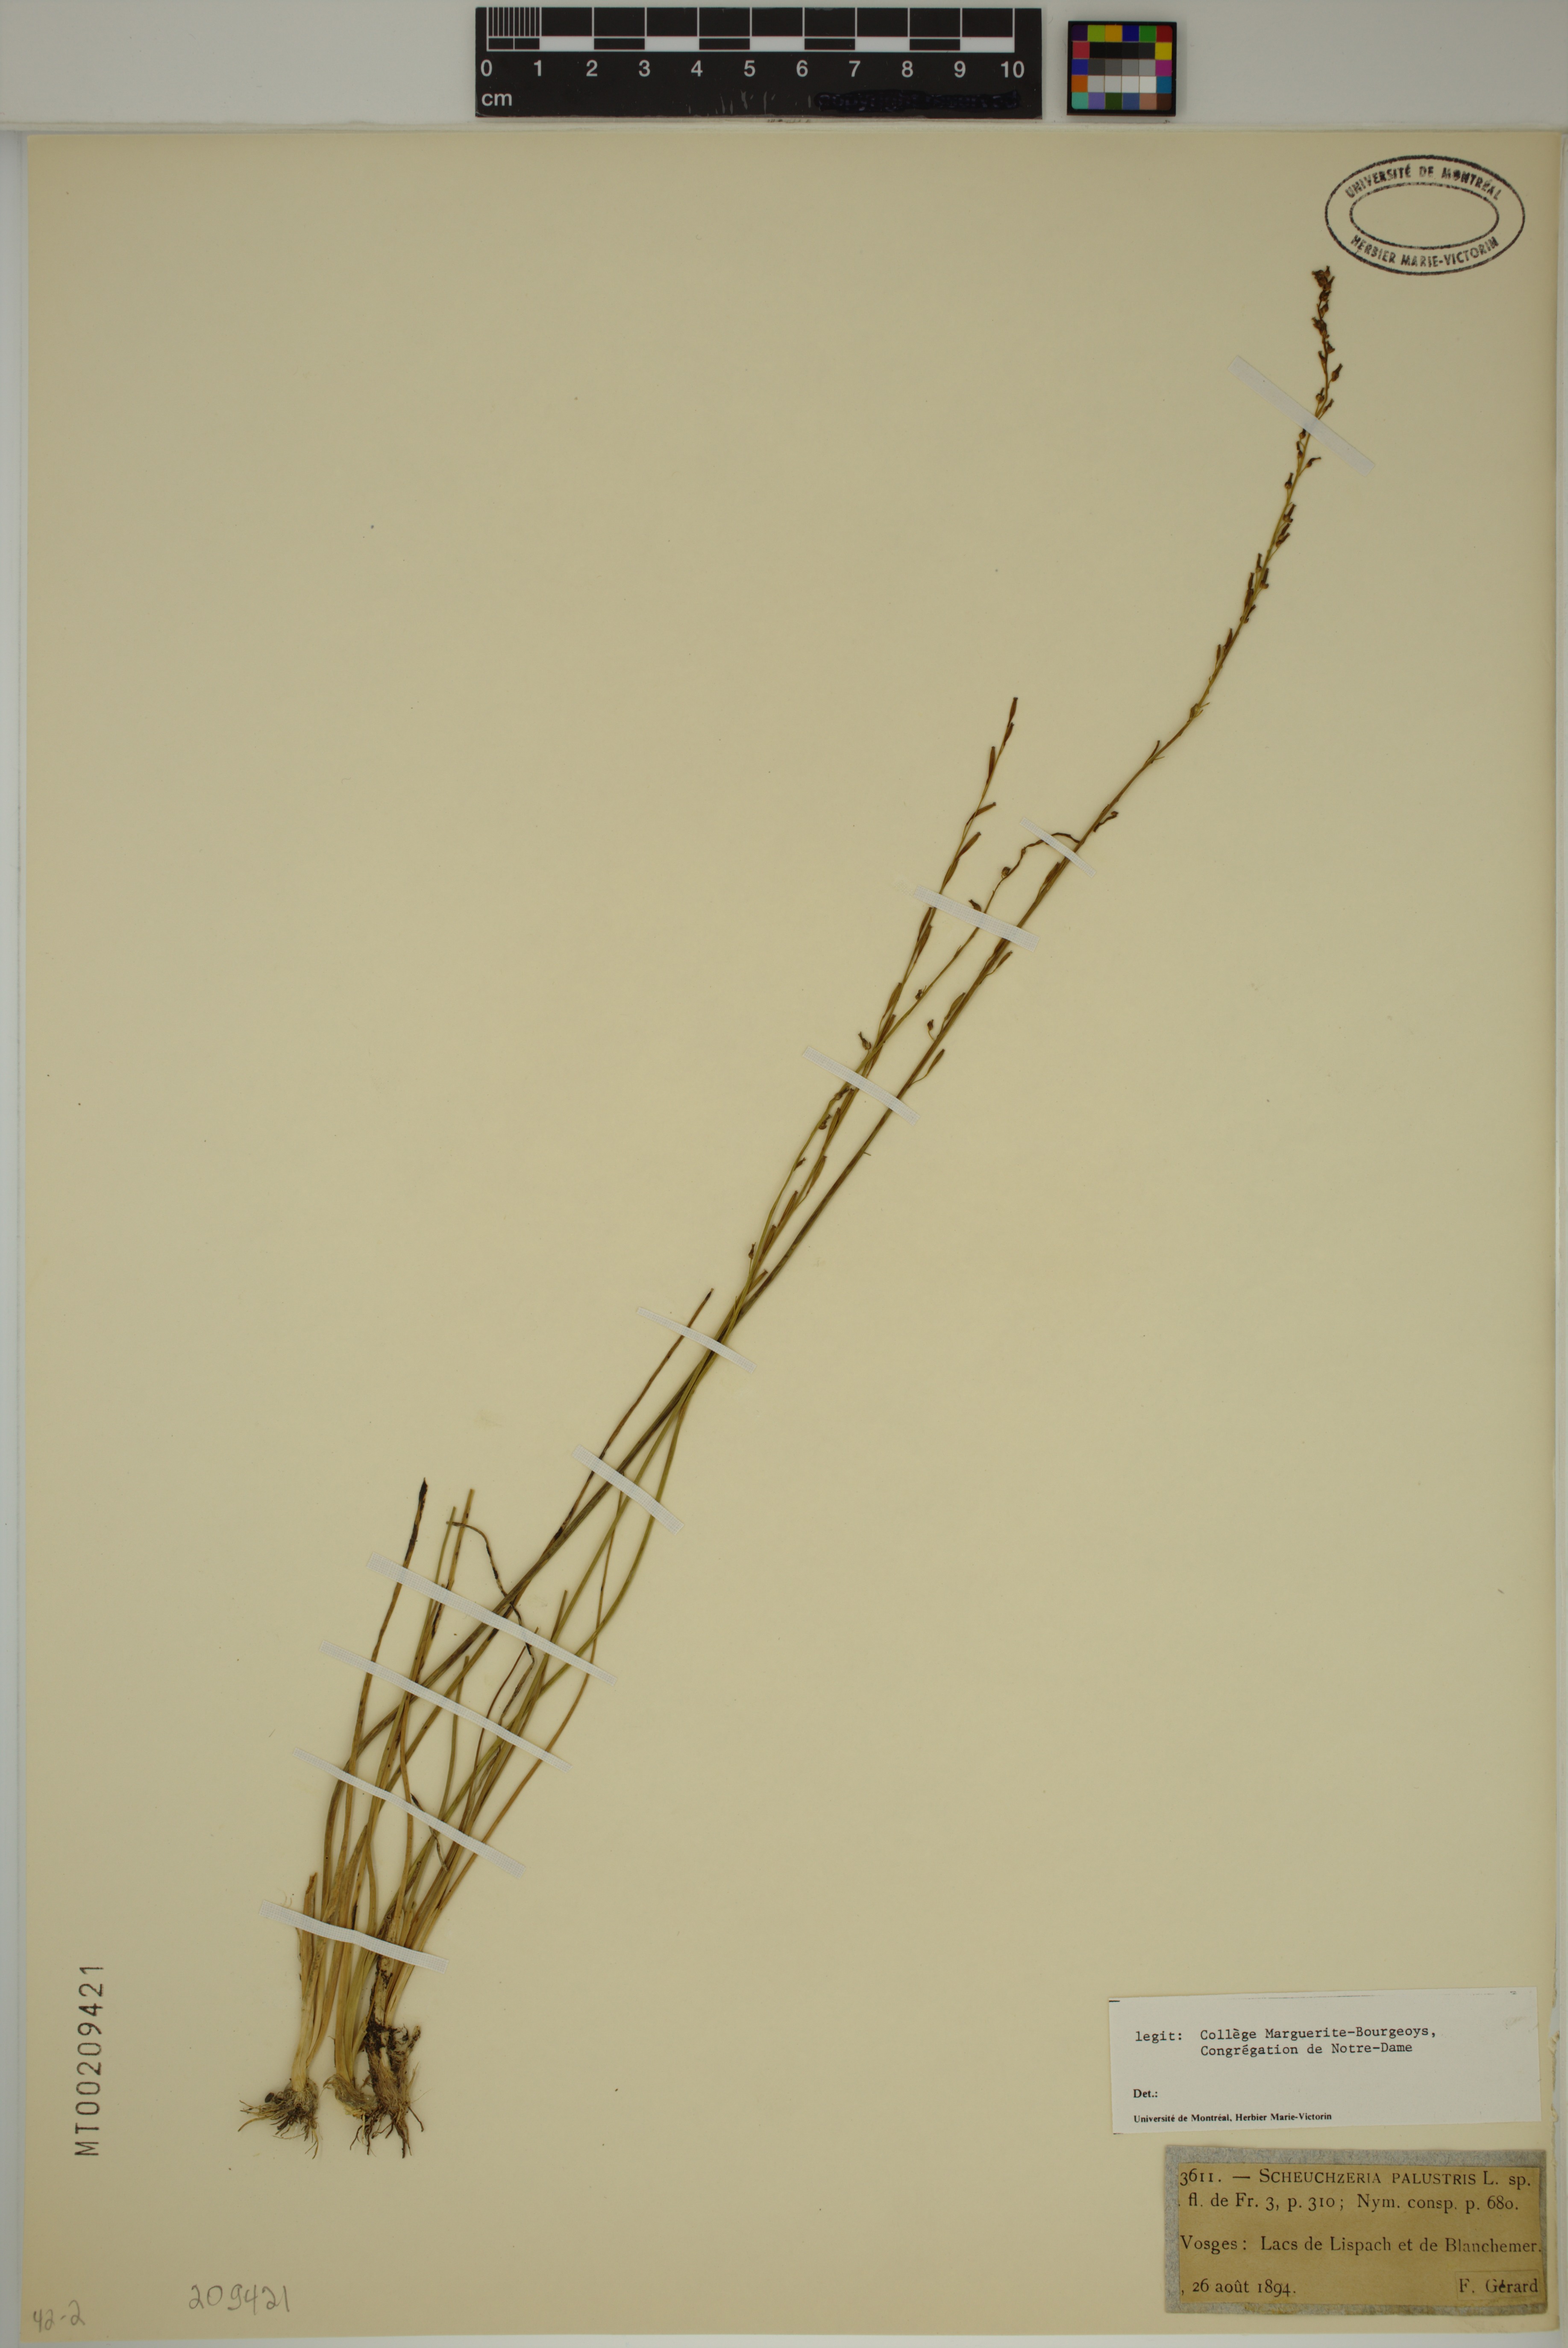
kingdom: Plantae
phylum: Tracheophyta
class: Liliopsida
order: Alismatales
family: Scheuchzeriaceae
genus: Scheuchzeria
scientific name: Scheuchzeria palustris
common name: Rannoch-rush
